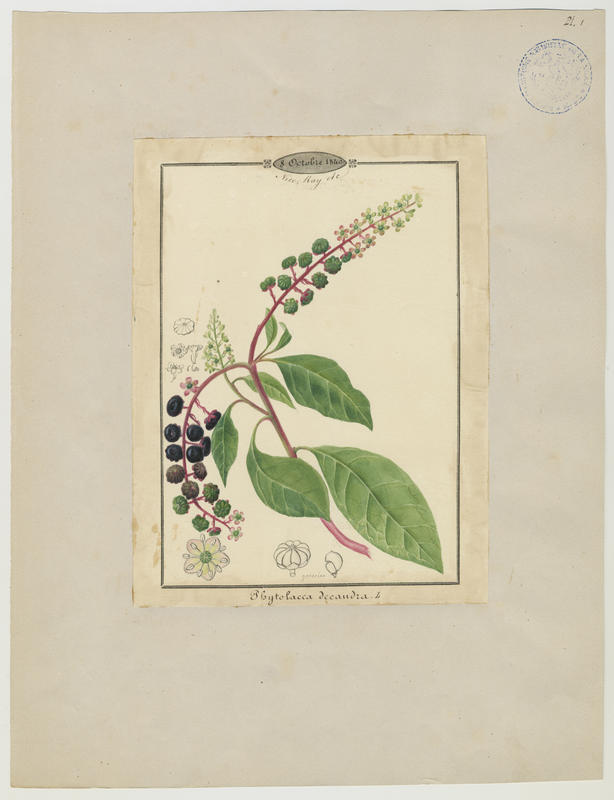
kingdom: Plantae
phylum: Tracheophyta
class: Magnoliopsida
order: Caryophyllales
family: Phytolaccaceae
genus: Phytolacca
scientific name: Phytolacca americana
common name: American pokeweed
